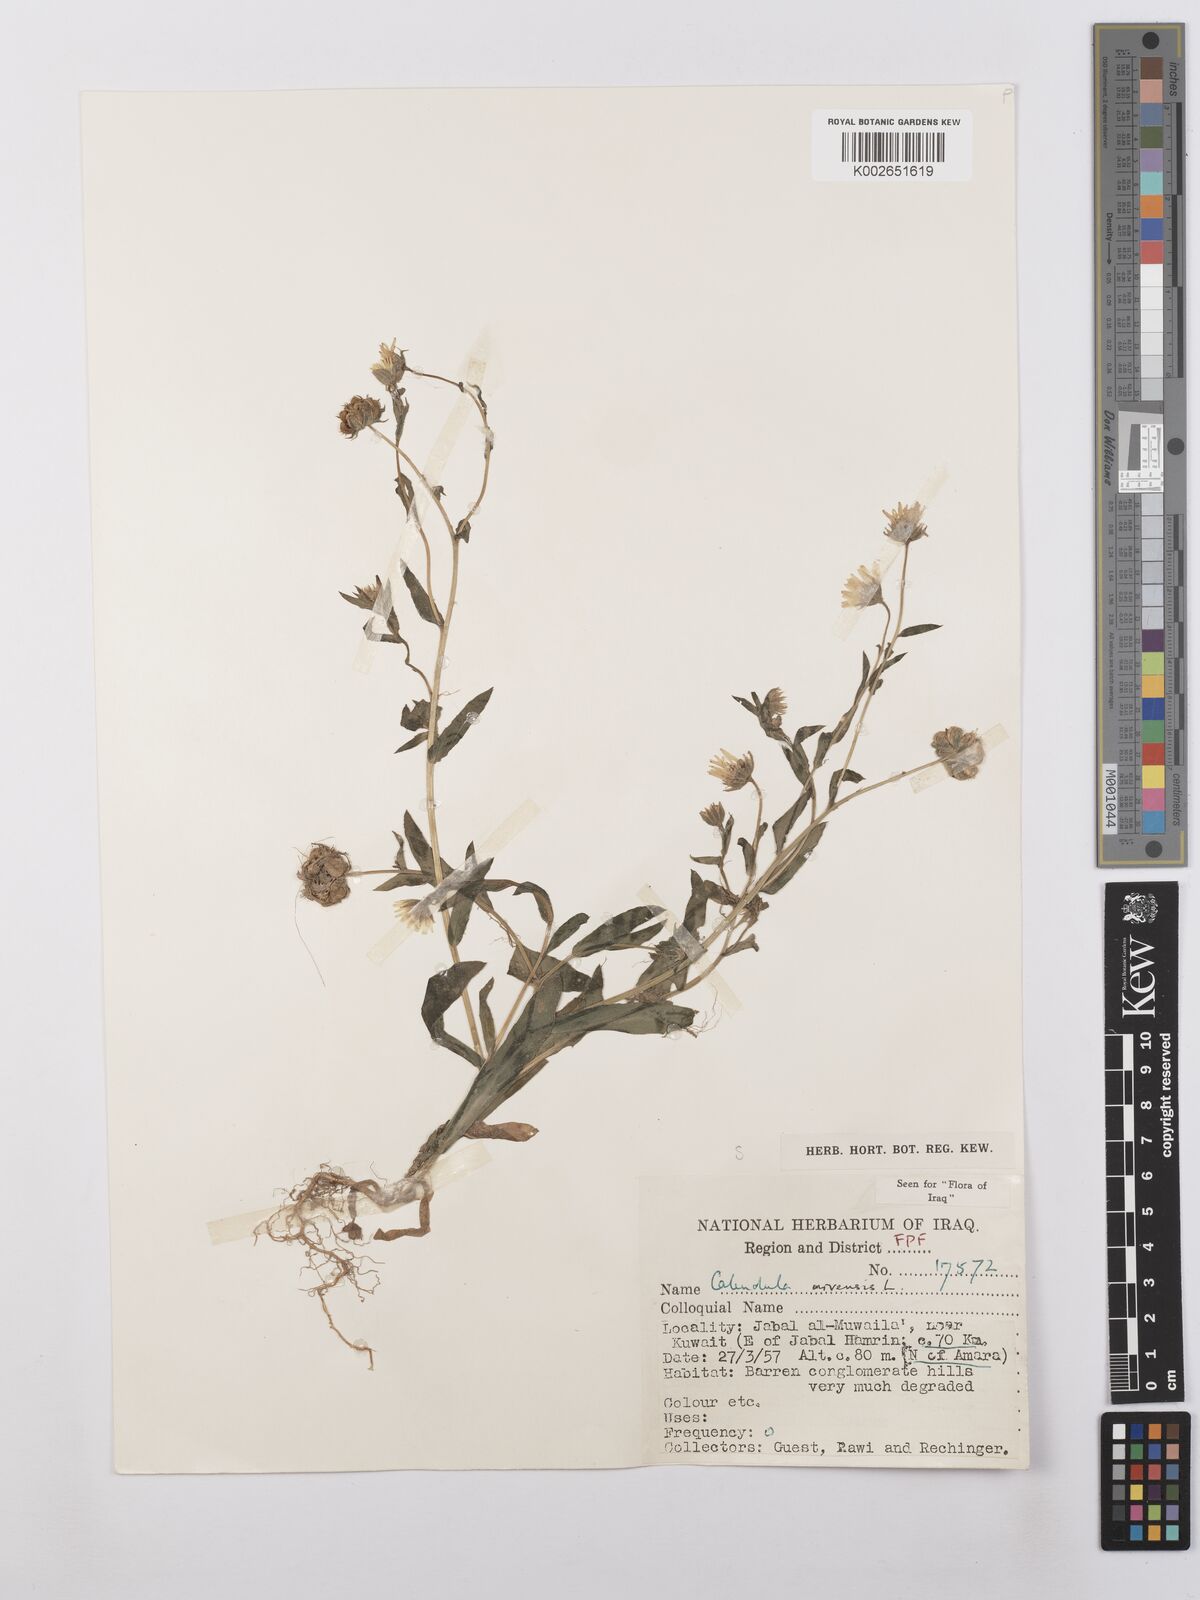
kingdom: Plantae
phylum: Tracheophyta
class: Magnoliopsida
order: Asterales
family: Asteraceae
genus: Calendula
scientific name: Calendula arvensis
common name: Field marigold
